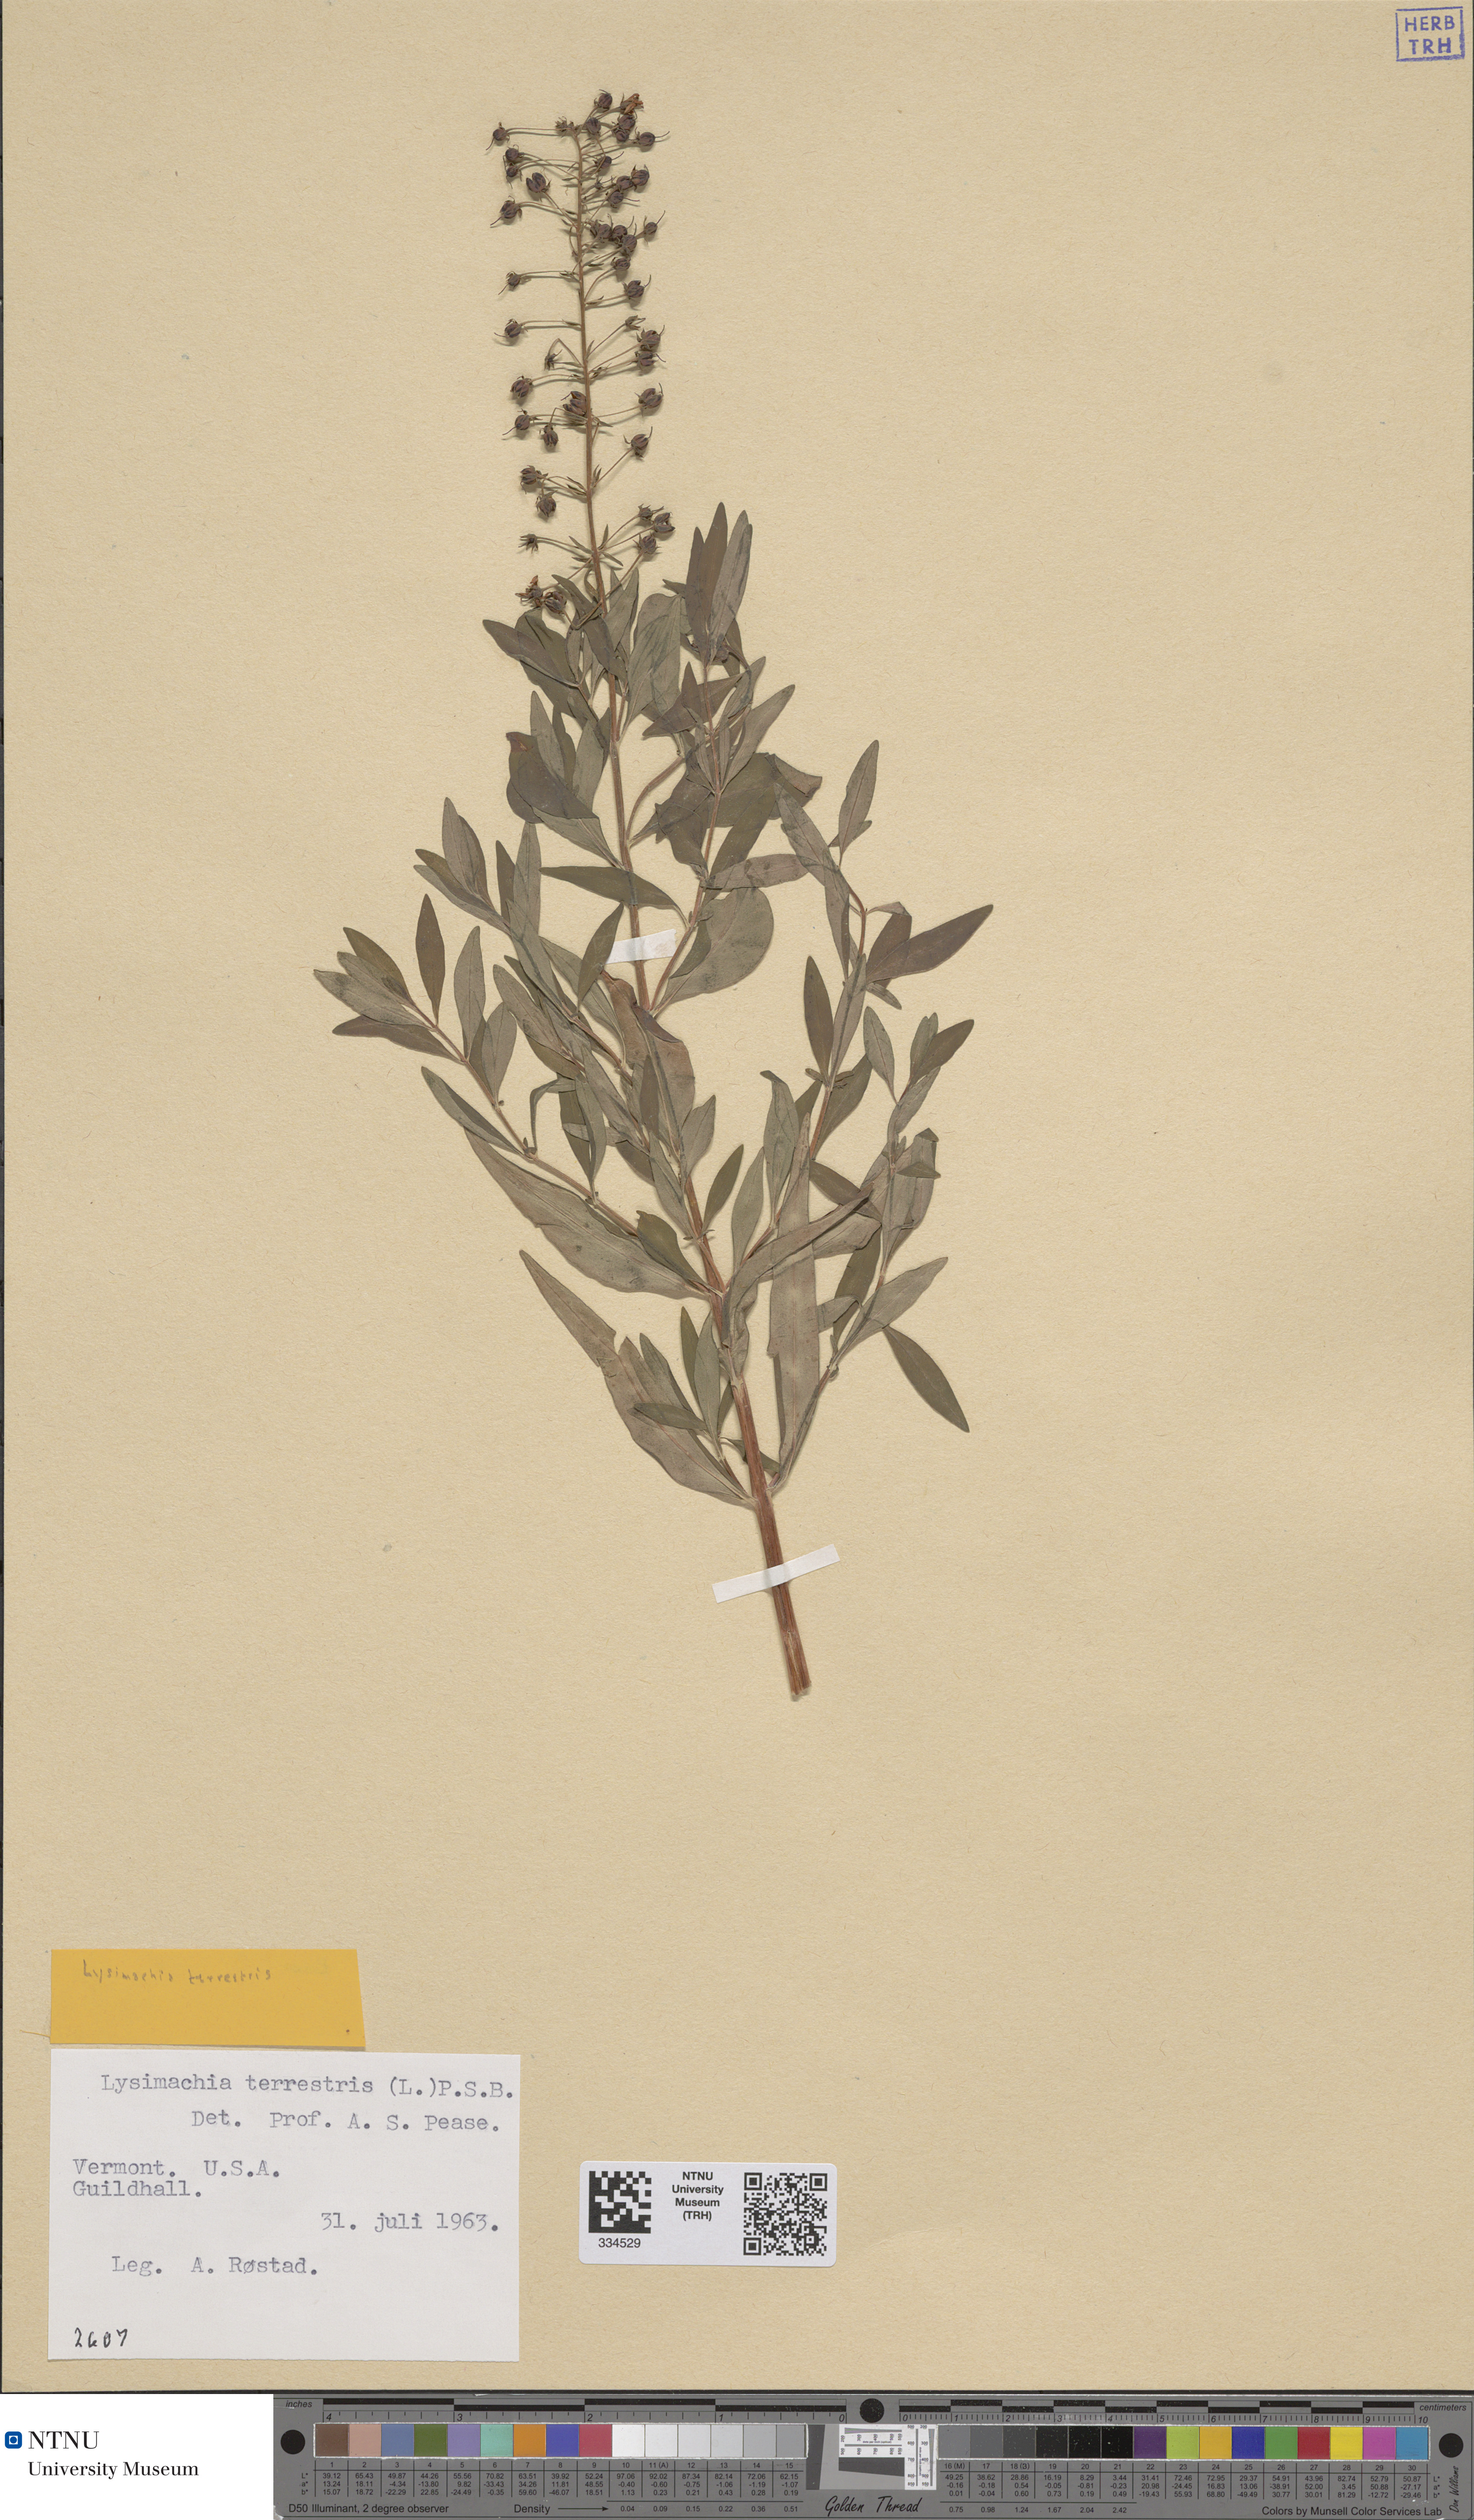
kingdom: Plantae
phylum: Tracheophyta
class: Magnoliopsida
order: Ericales
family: Primulaceae
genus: Lysimachia
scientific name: Lysimachia terrestris
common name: Lake loosestrife
